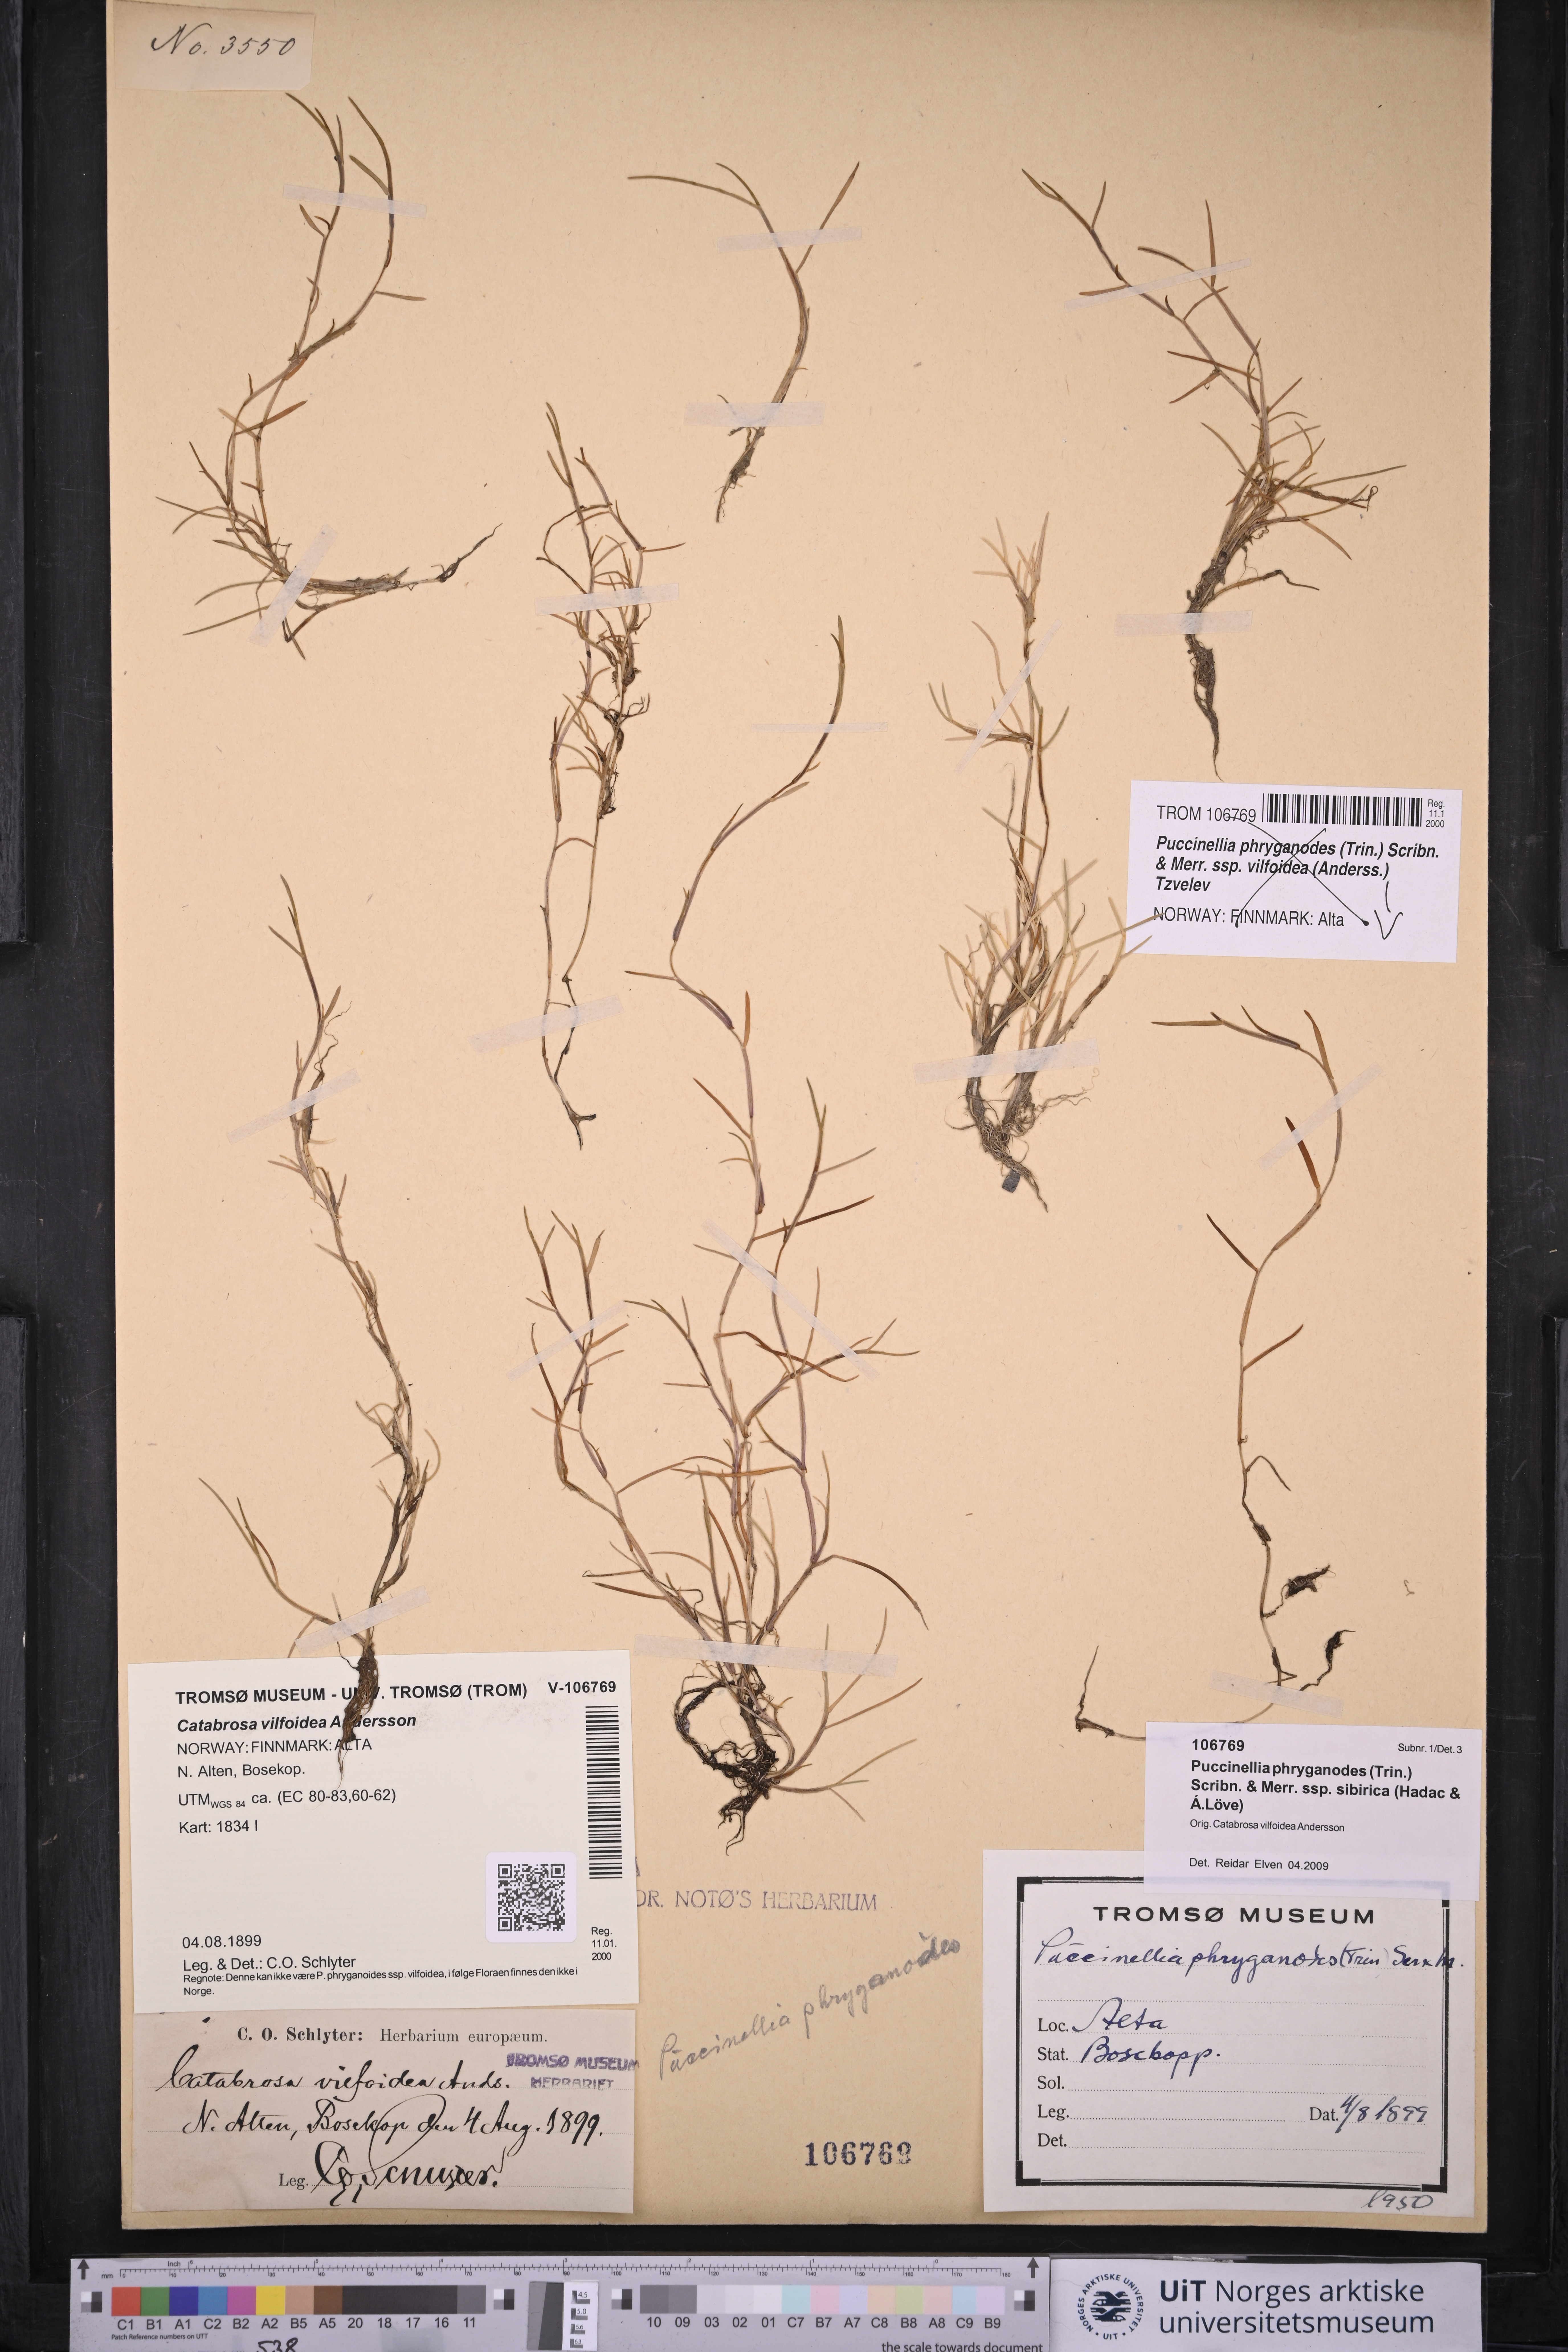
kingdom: Plantae
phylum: Tracheophyta
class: Liliopsida
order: Poales
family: Poaceae
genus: Puccinellia
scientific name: Puccinellia phryganodes
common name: Creeping alkaligrass
